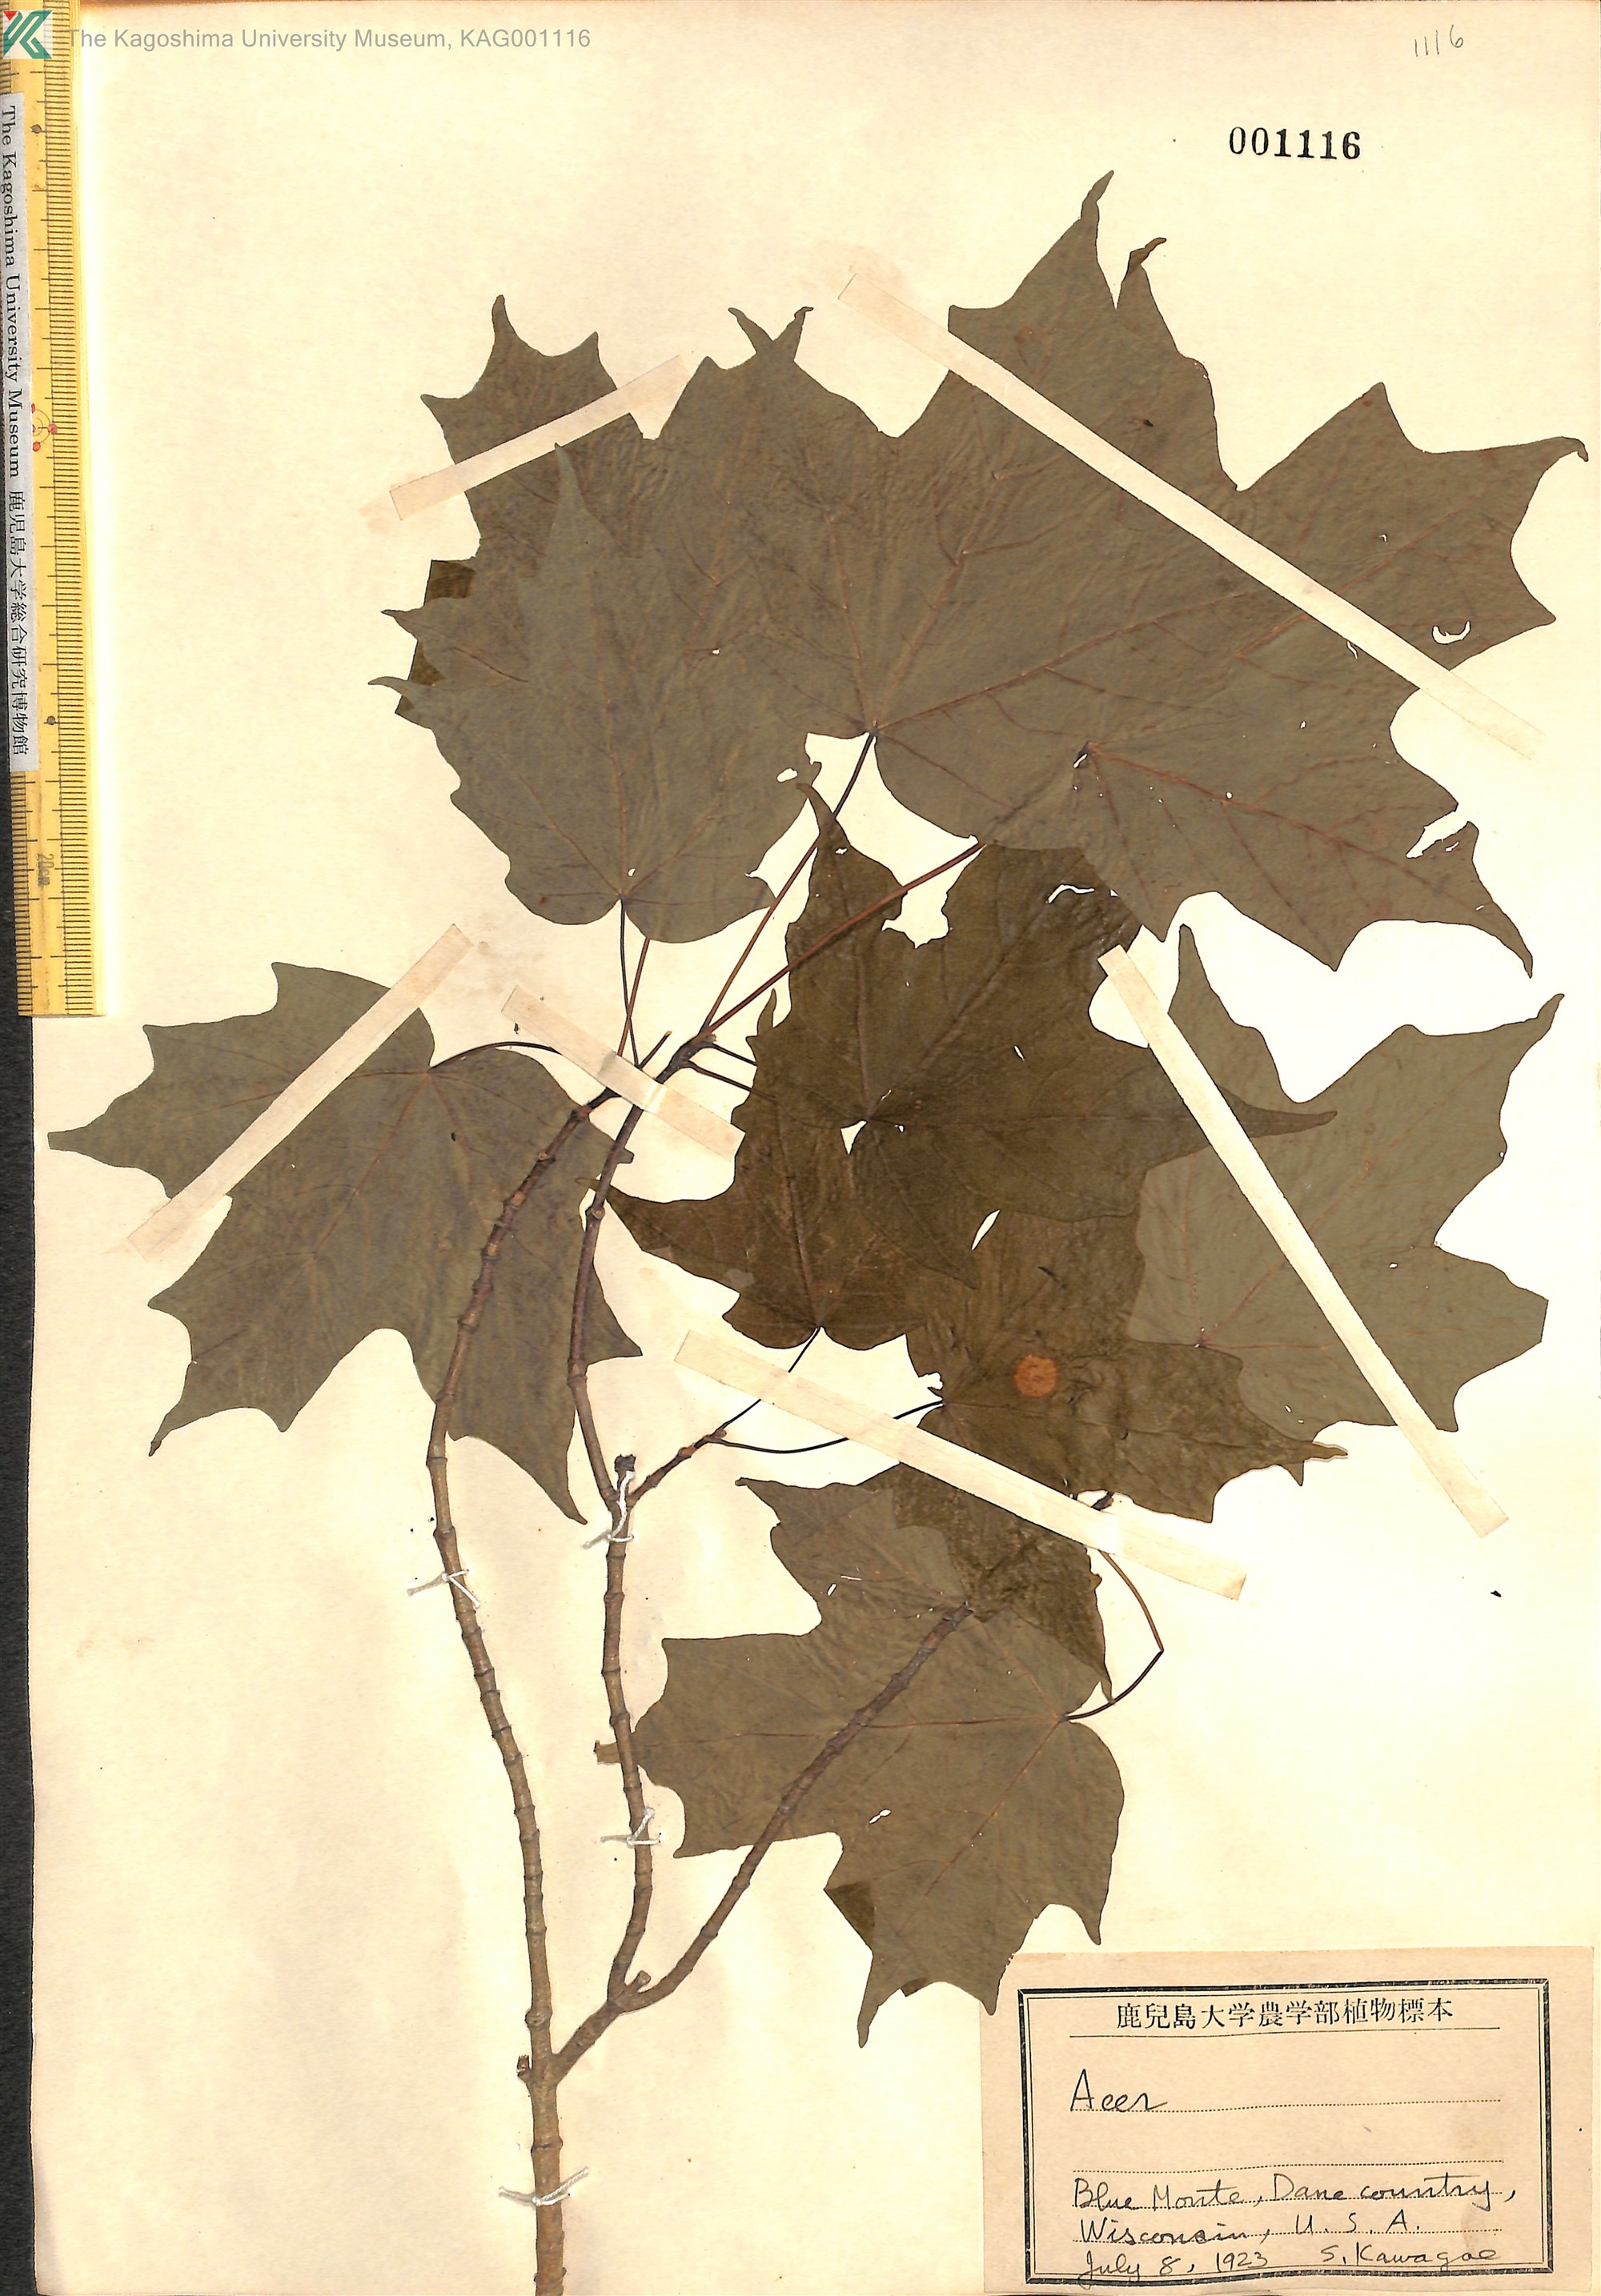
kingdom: Plantae
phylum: Tracheophyta
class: Magnoliopsida
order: Sapindales
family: Sapindaceae
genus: Acer
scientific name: Acer
